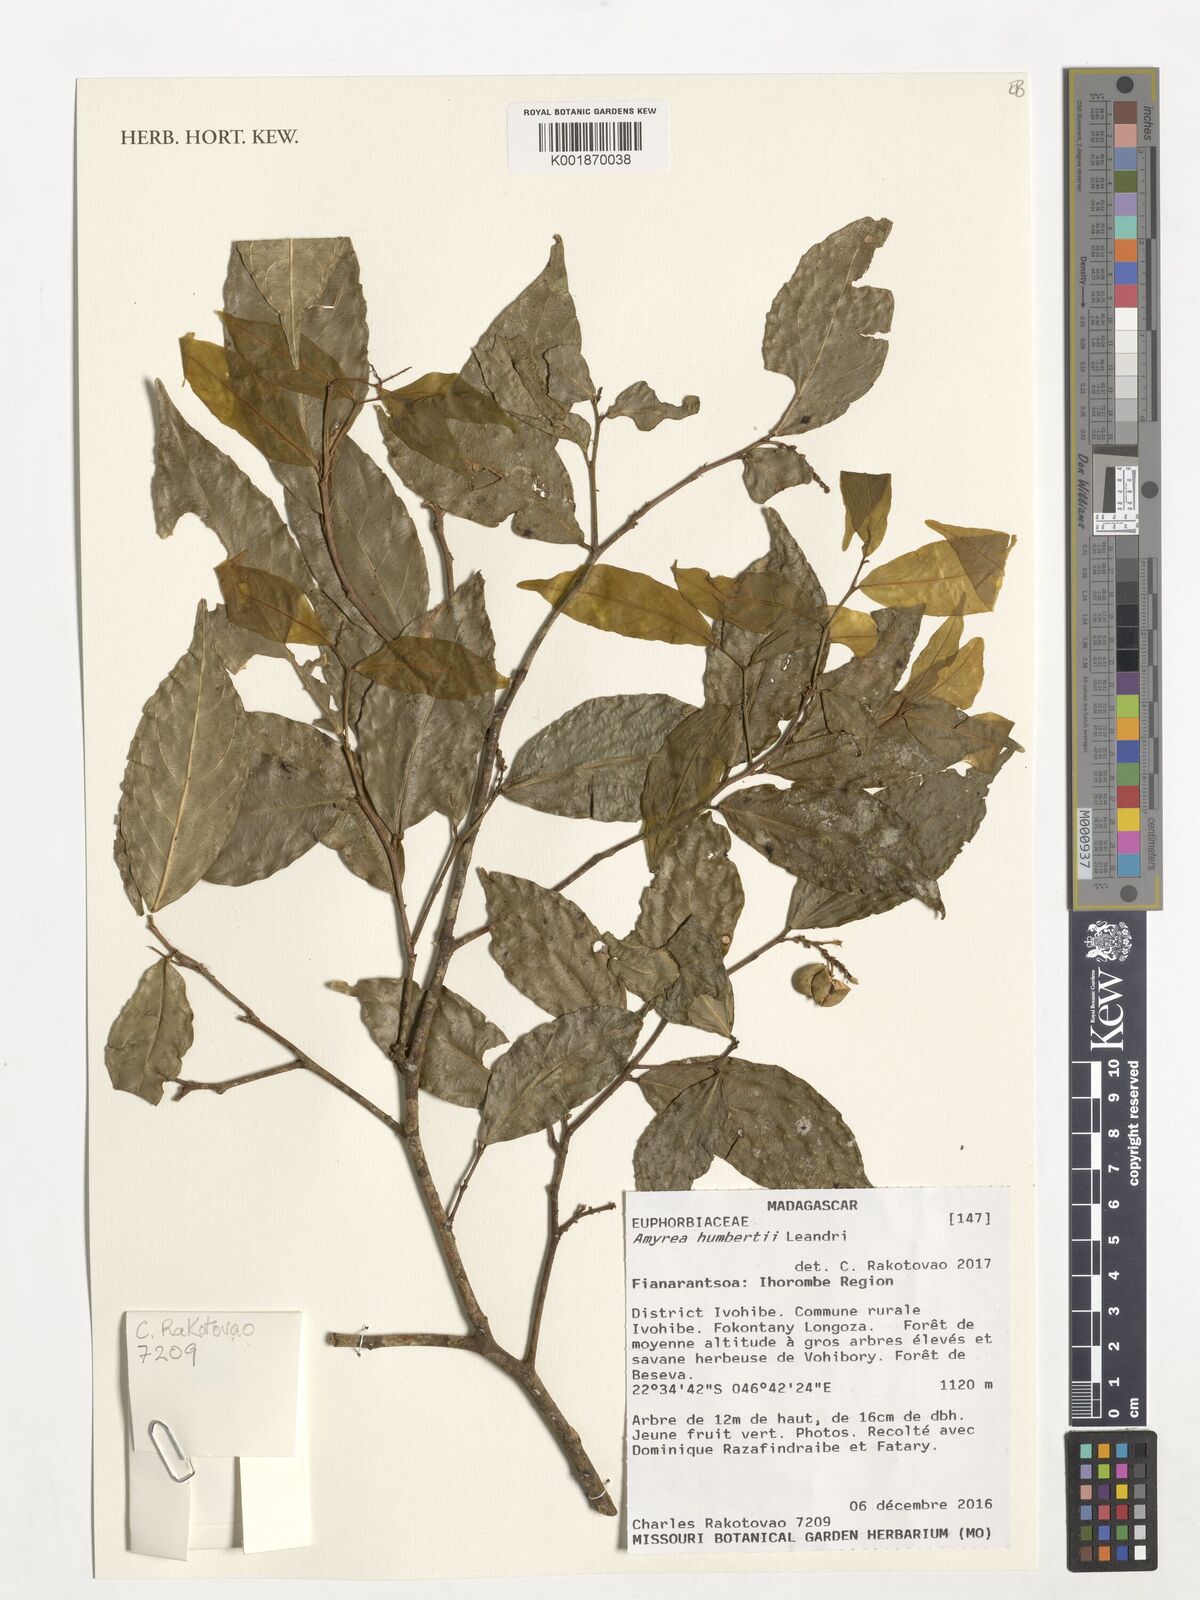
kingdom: Plantae
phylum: Tracheophyta
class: Magnoliopsida
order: Malpighiales
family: Euphorbiaceae
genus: Amyrea
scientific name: Amyrea humbertii
